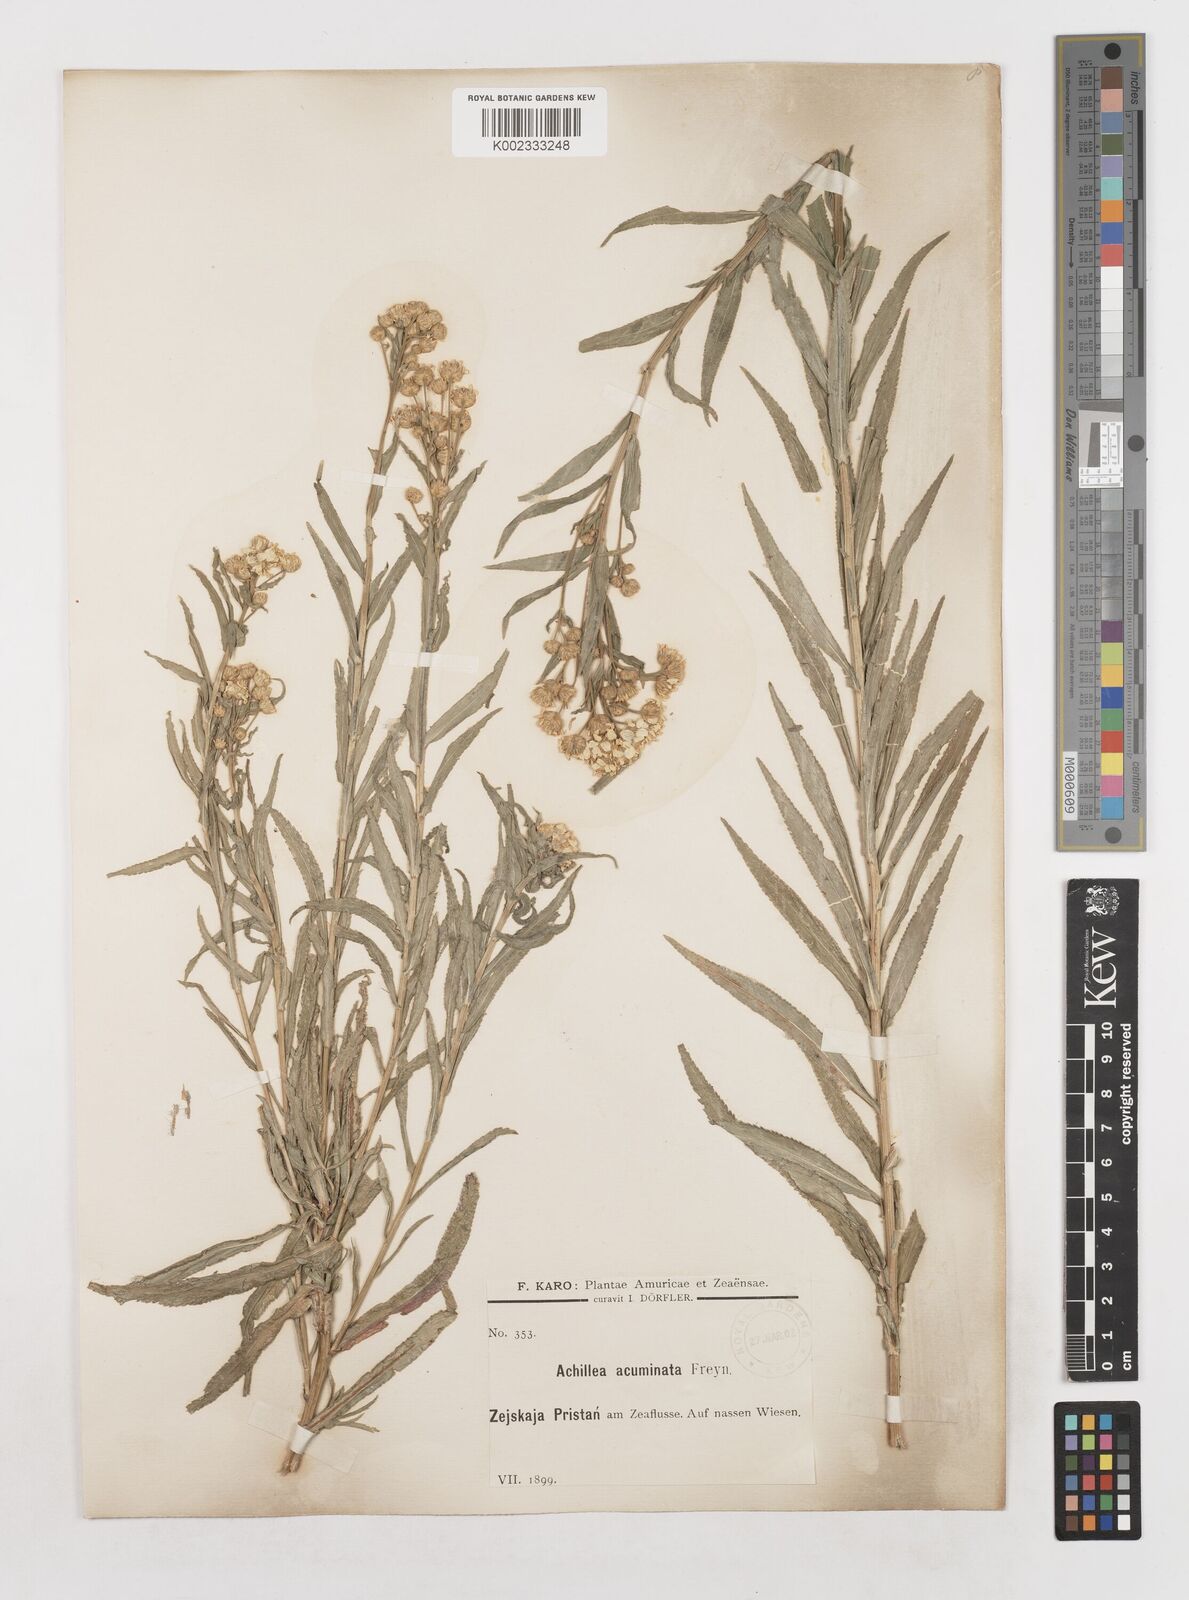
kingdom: Plantae
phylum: Tracheophyta
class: Magnoliopsida
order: Asterales
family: Asteraceae
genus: Achillea
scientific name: Achillea
